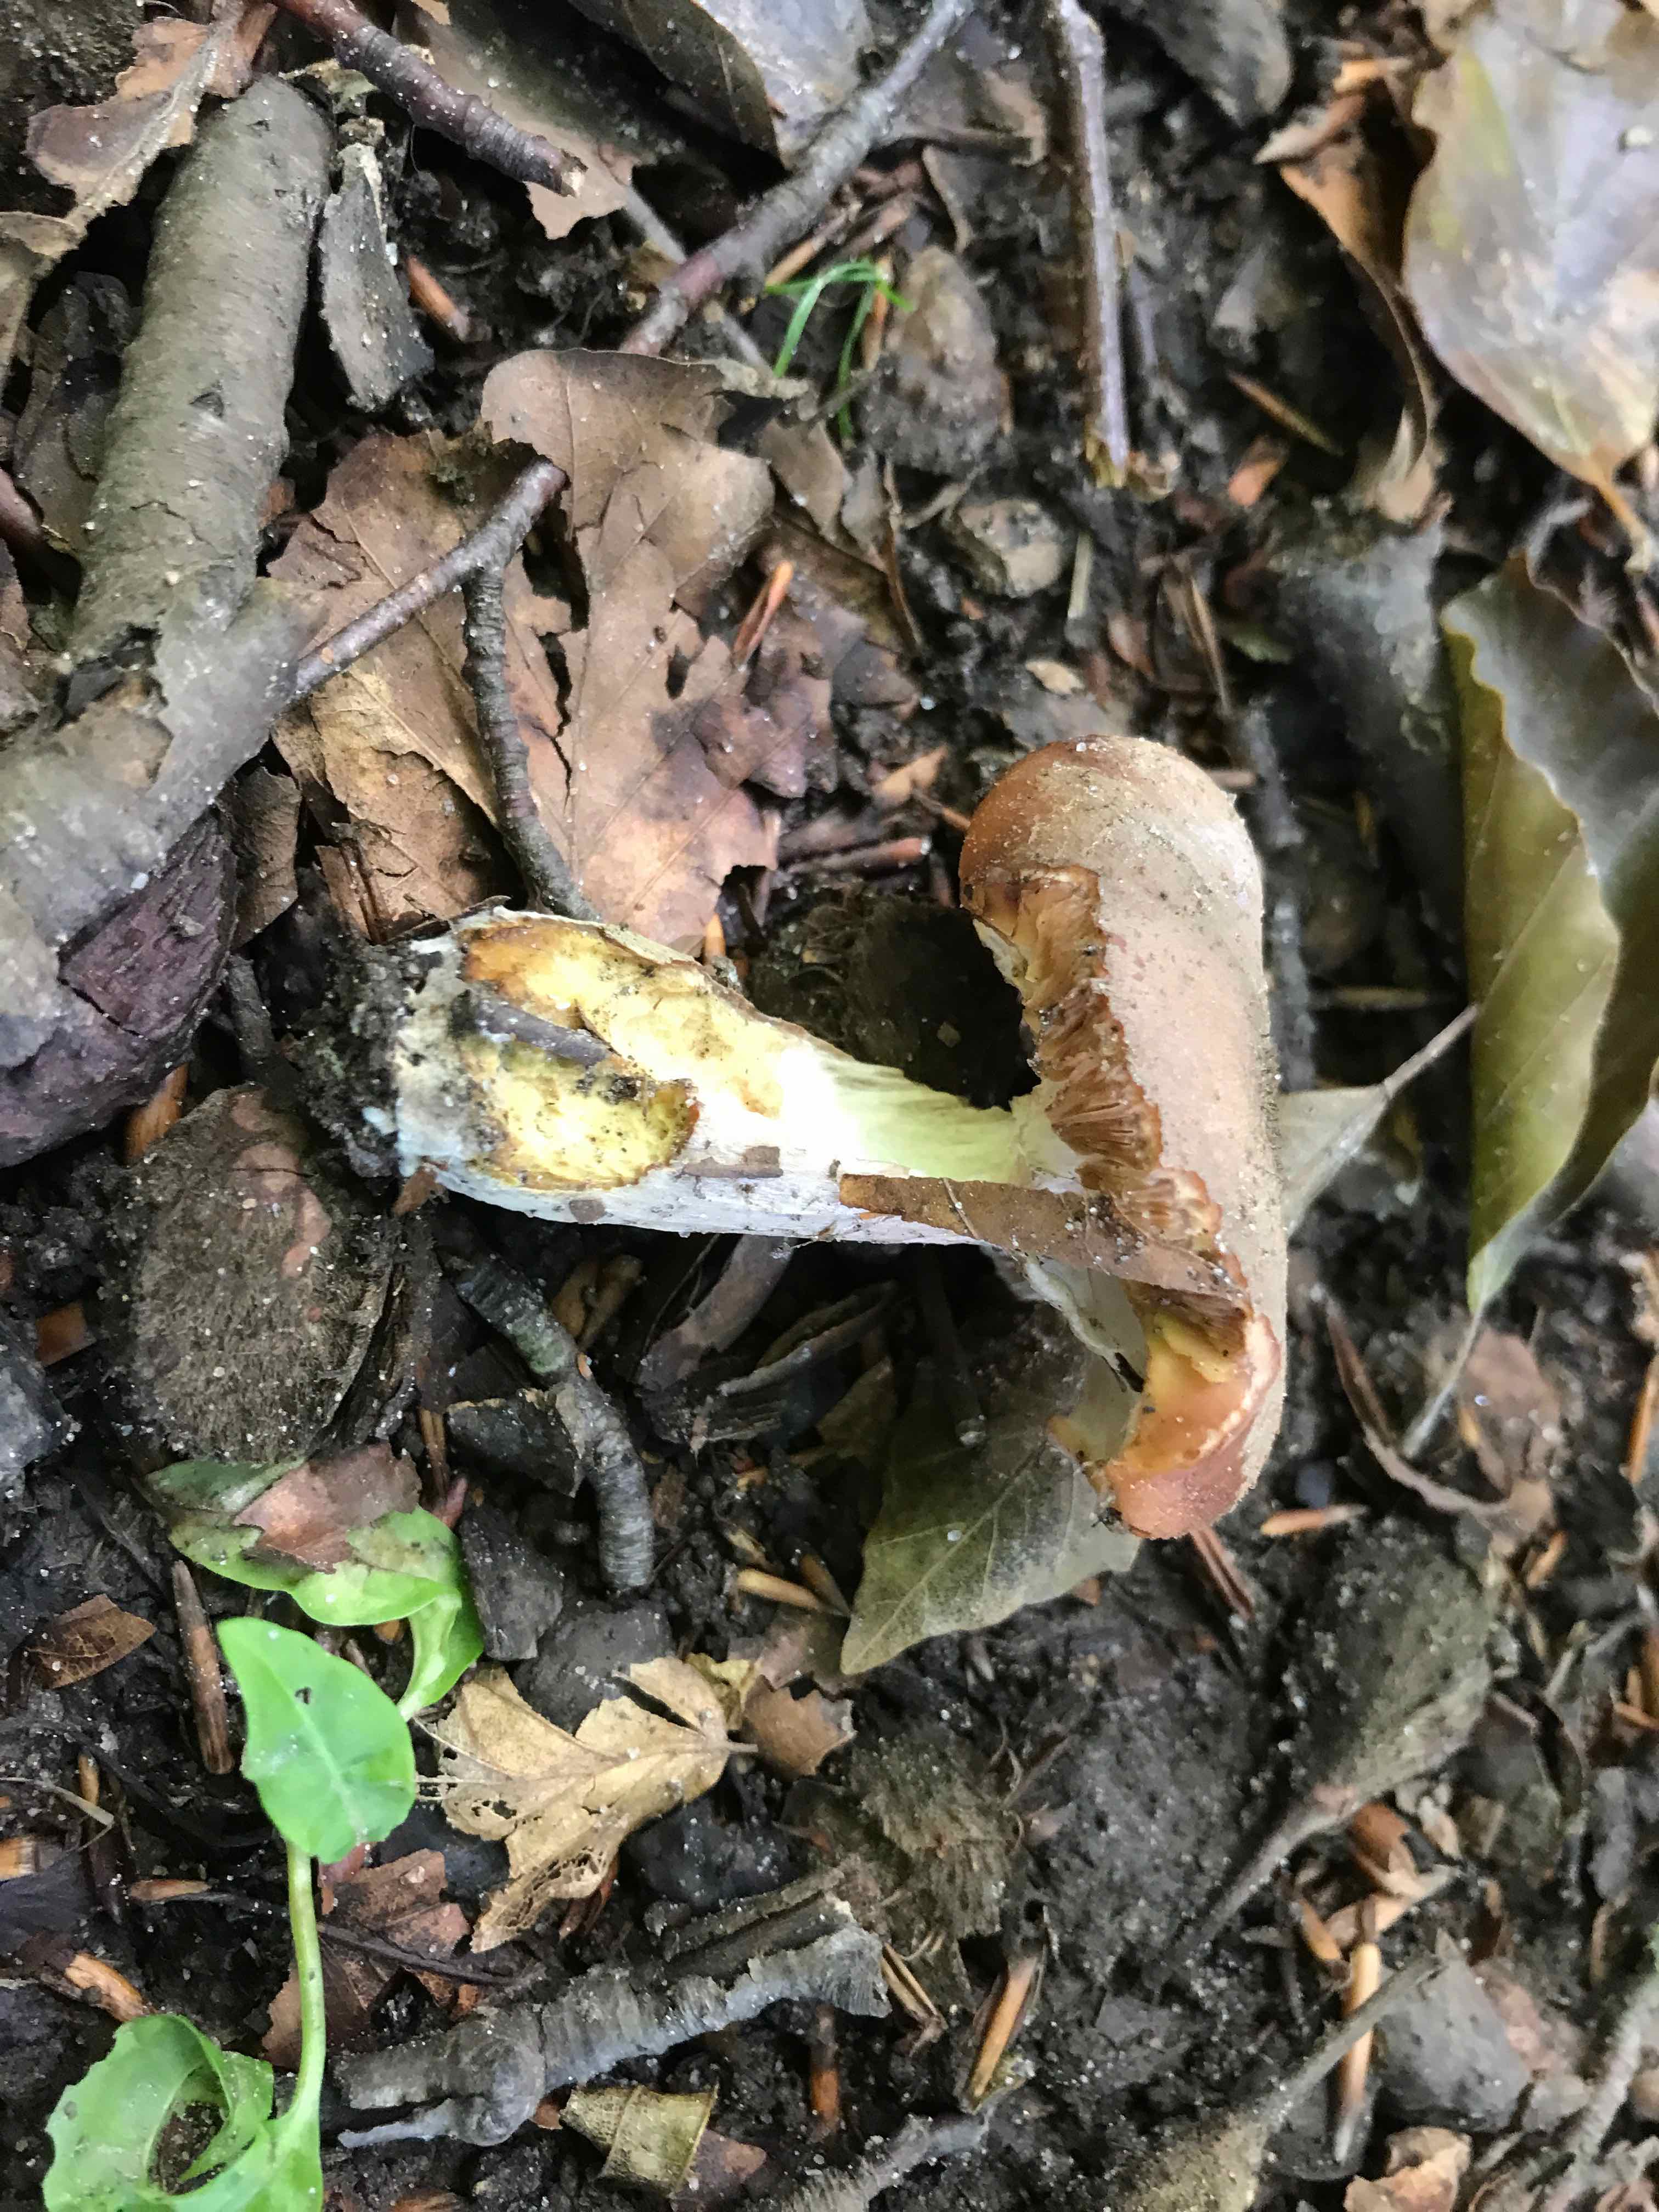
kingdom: Fungi
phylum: Basidiomycota
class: Agaricomycetes
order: Agaricales
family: Physalacriaceae
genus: Armillaria
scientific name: Armillaria lutea
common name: køllestokket honningsvamp
